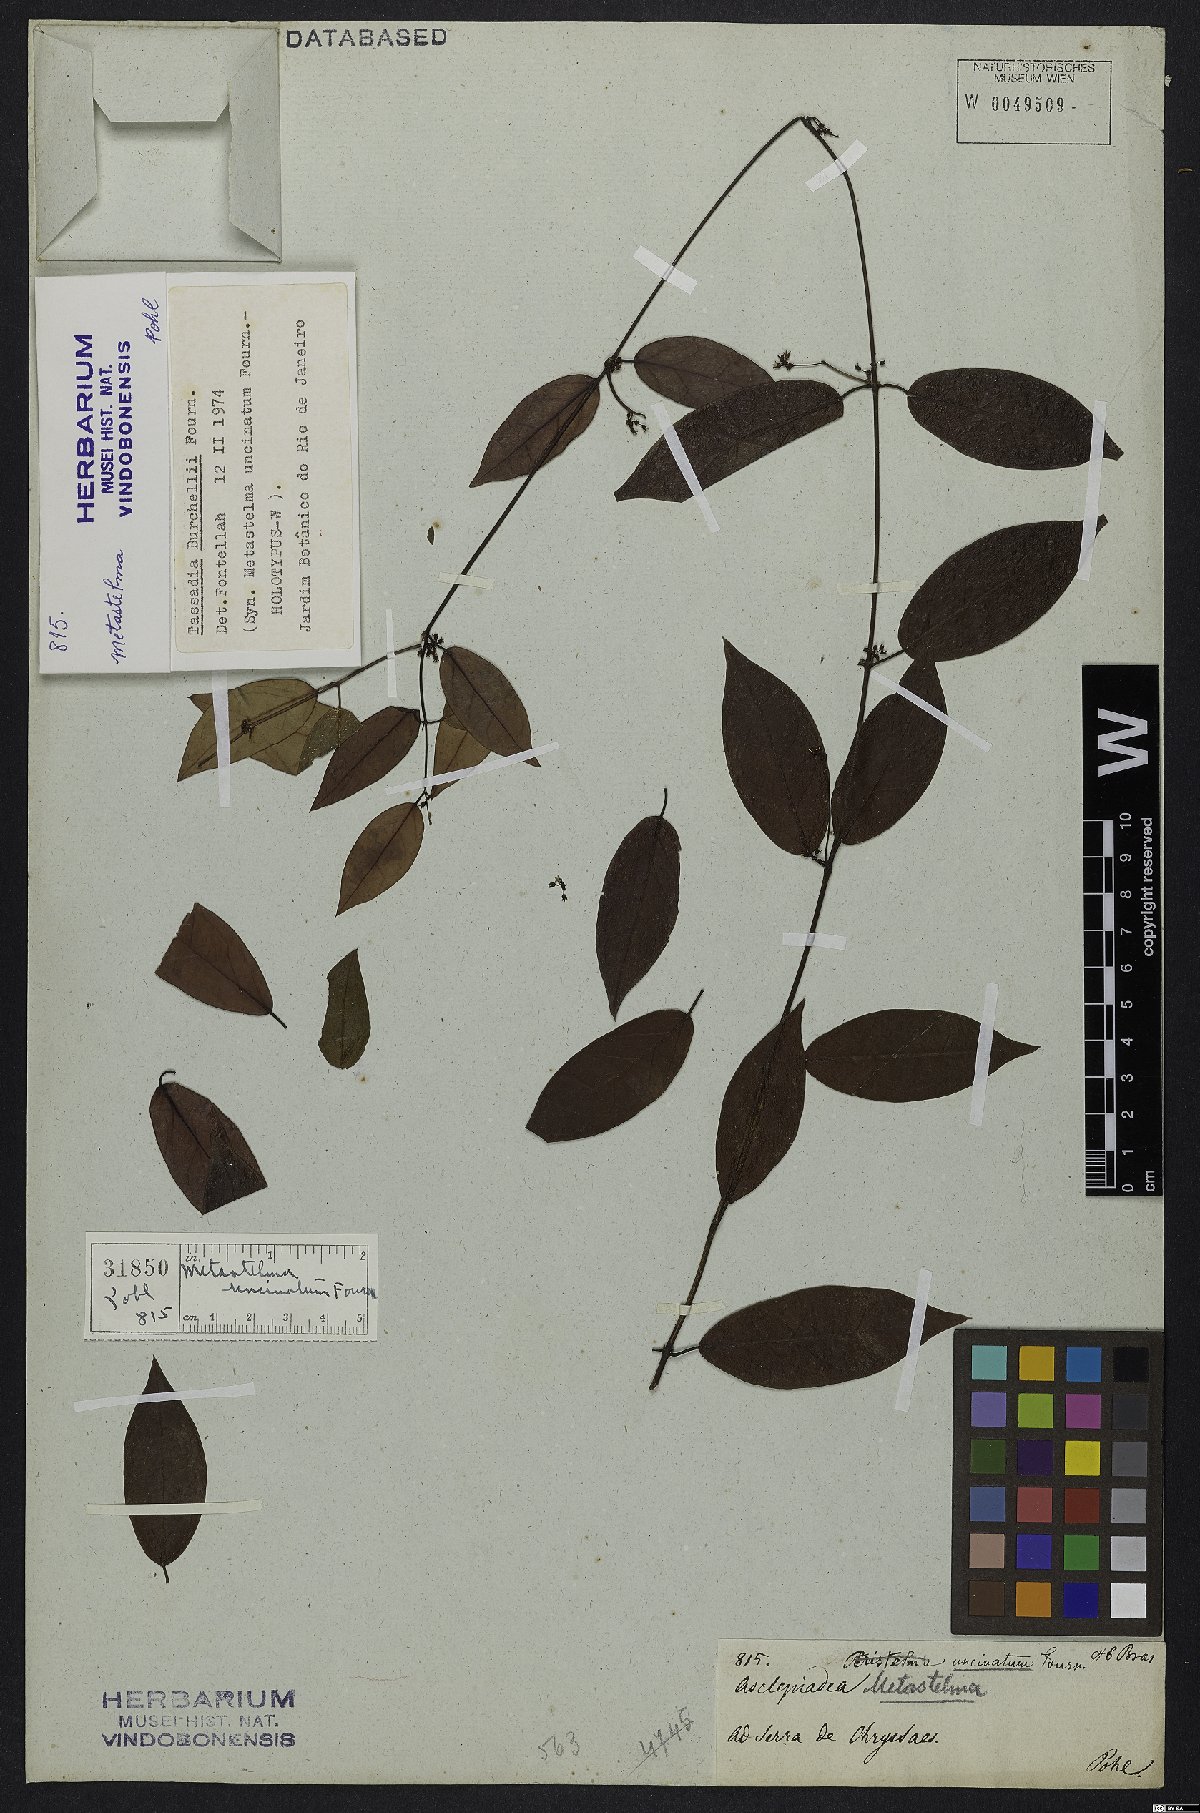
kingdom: Plantae
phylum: Tracheophyta
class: Magnoliopsida
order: Gentianales
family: Apocynaceae
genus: Tassadia
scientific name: Tassadia burchelii
